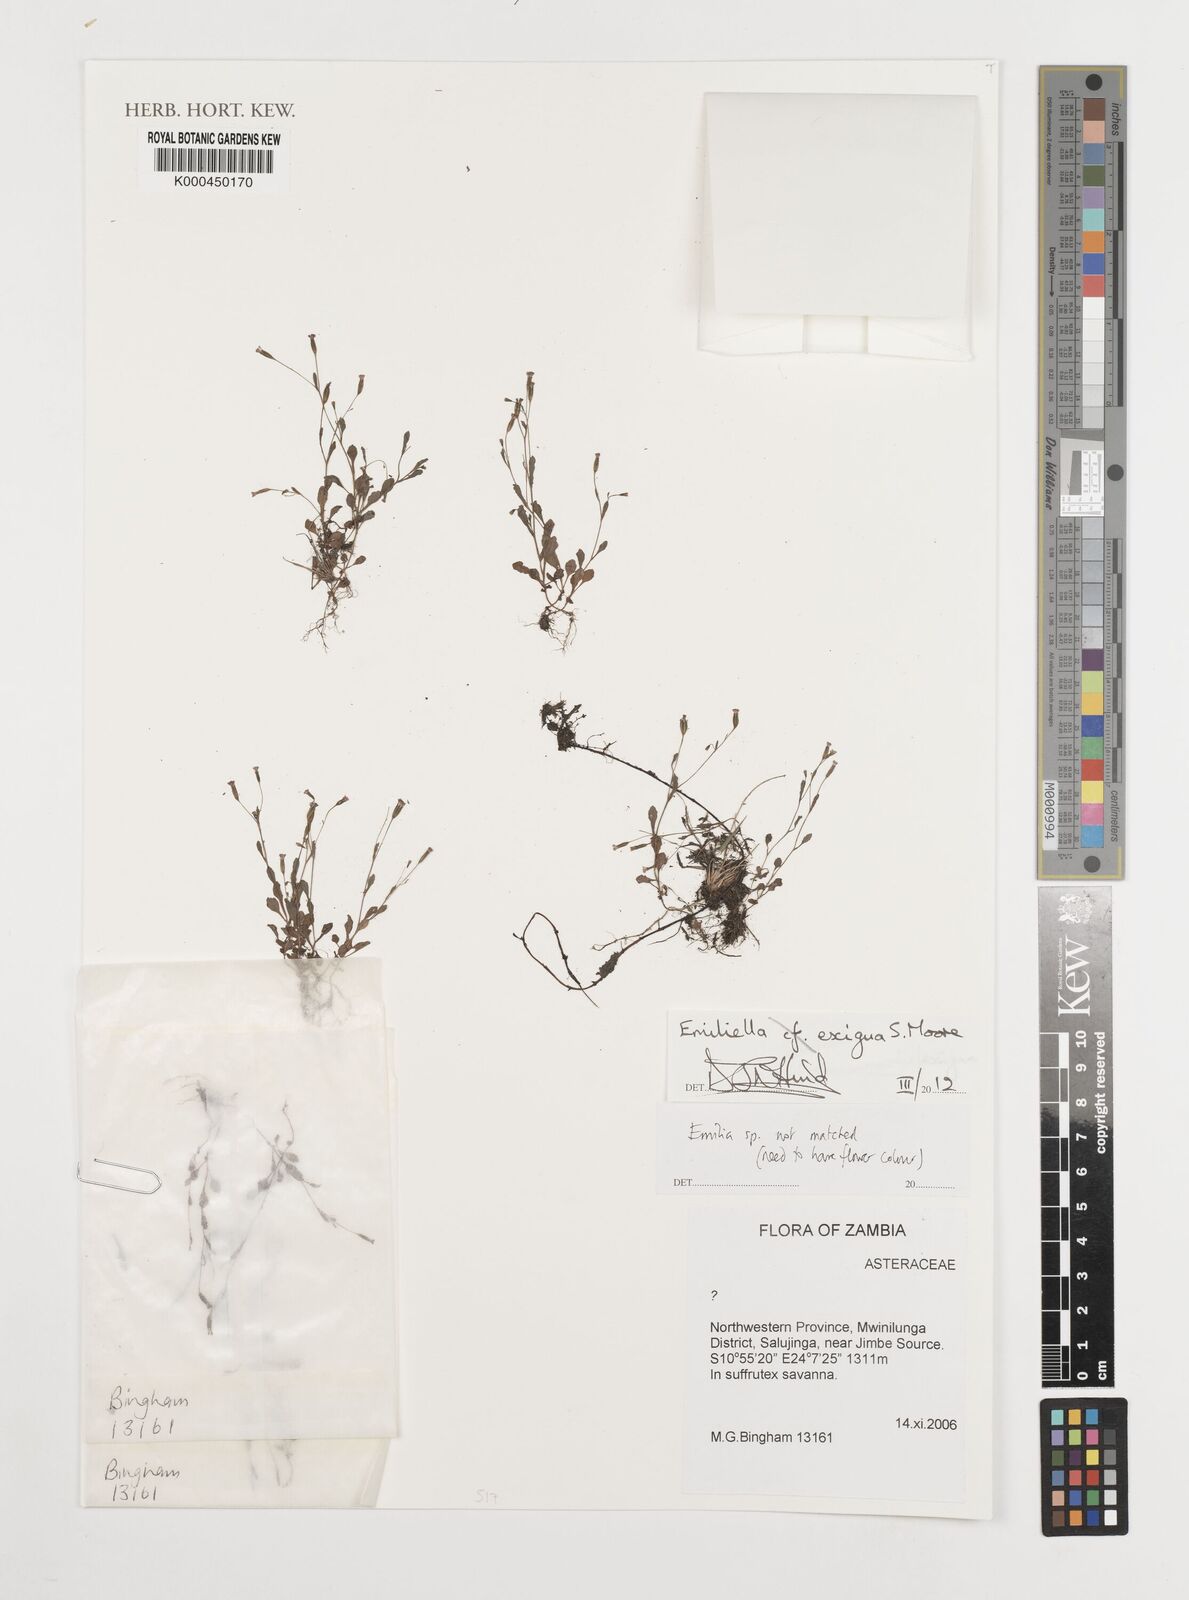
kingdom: Plantae
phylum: Tracheophyta
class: Magnoliopsida
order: Asterales
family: Asteraceae
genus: Emilia
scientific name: Emilia
